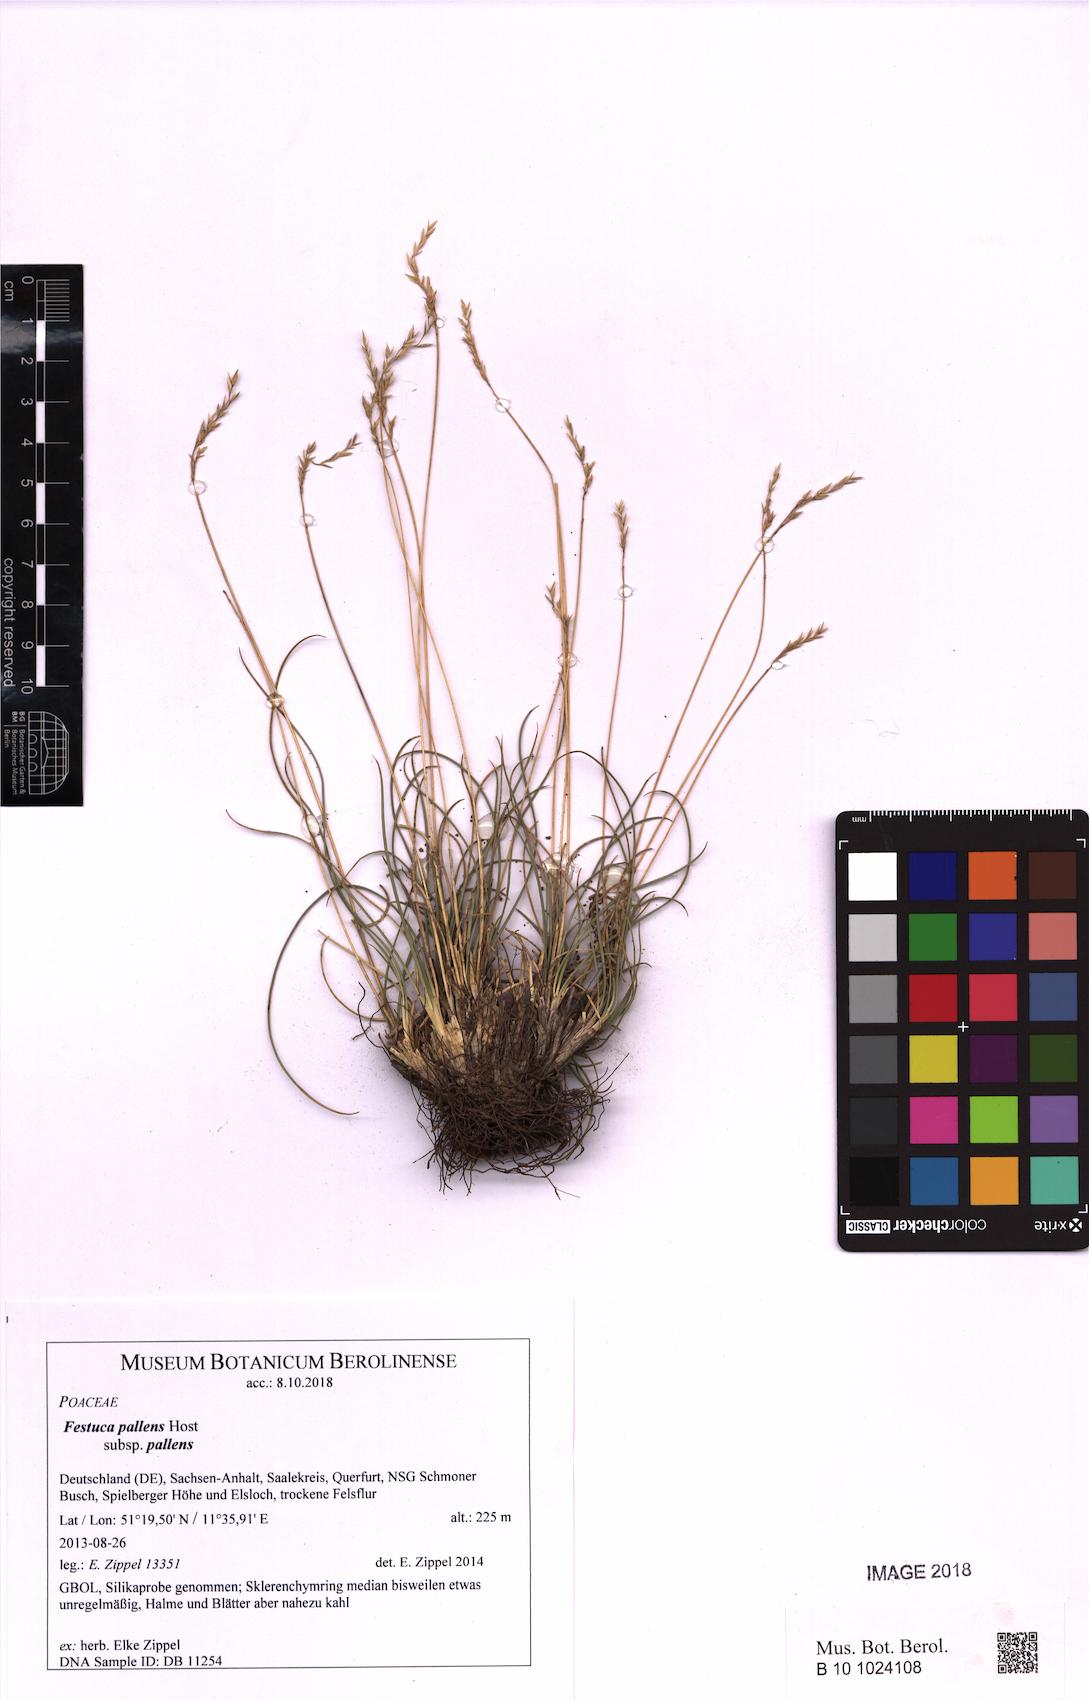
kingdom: Plantae
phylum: Tracheophyta
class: Liliopsida
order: Poales
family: Poaceae
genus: Festuca
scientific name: Festuca pallens
